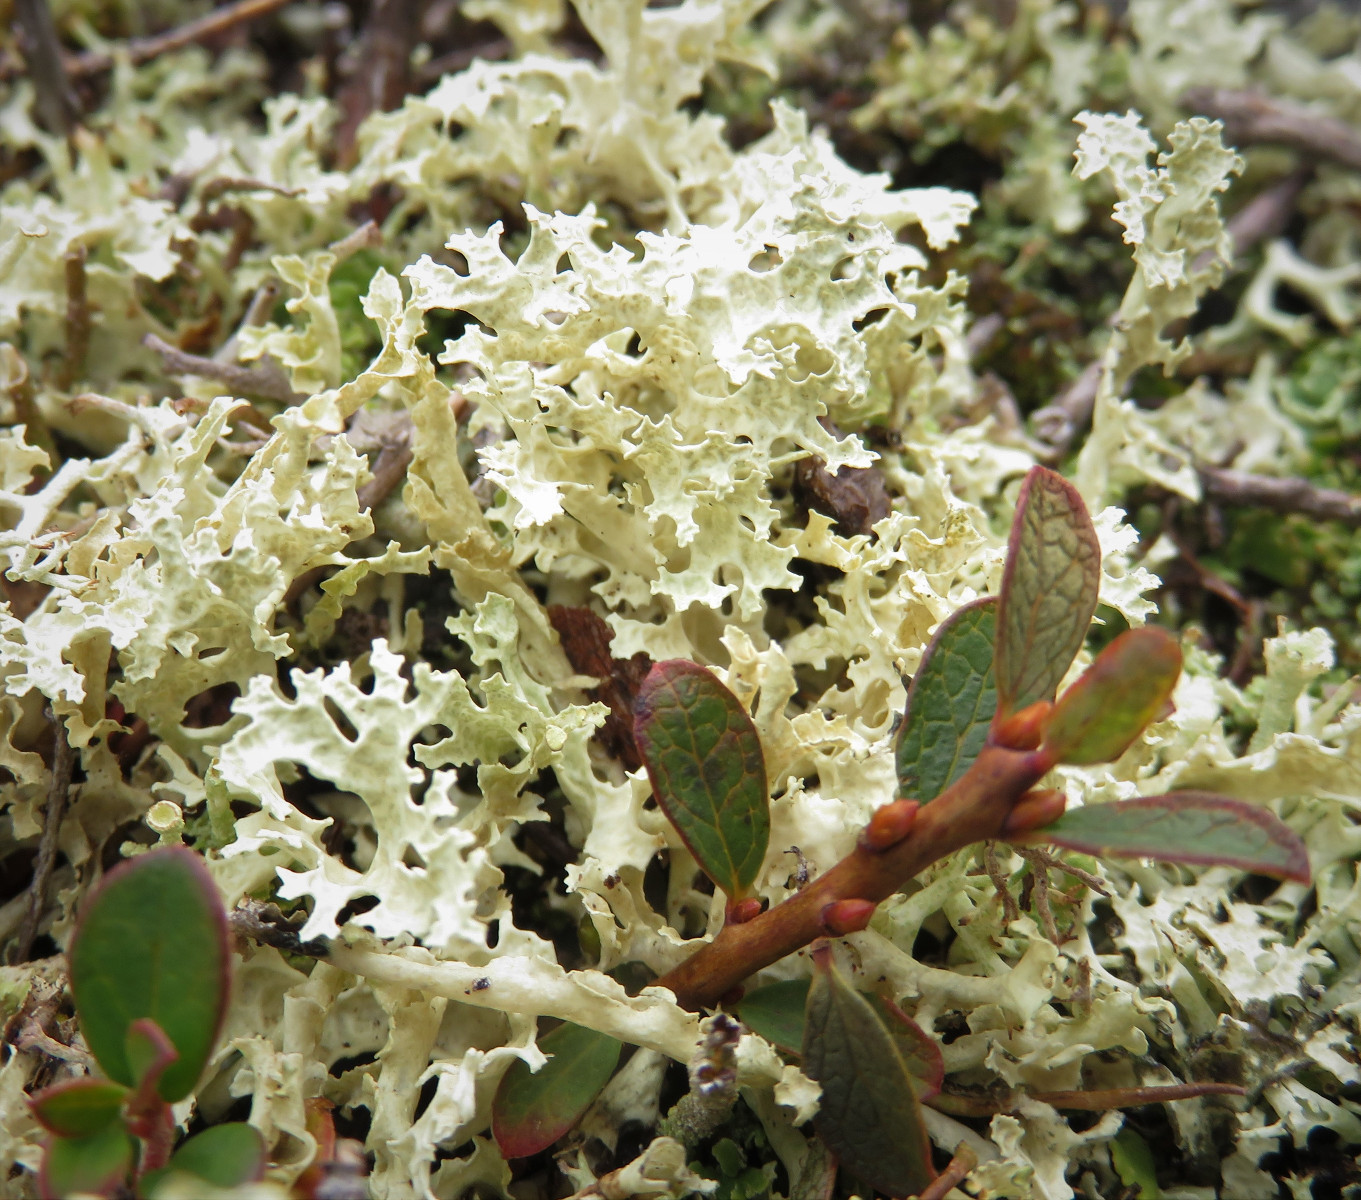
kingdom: Fungi
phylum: Ascomycota
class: Lecanoromycetes
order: Lecanorales
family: Parmeliaceae
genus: Nephromopsis
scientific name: Nephromopsis nivalis
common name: sne-kruslav
